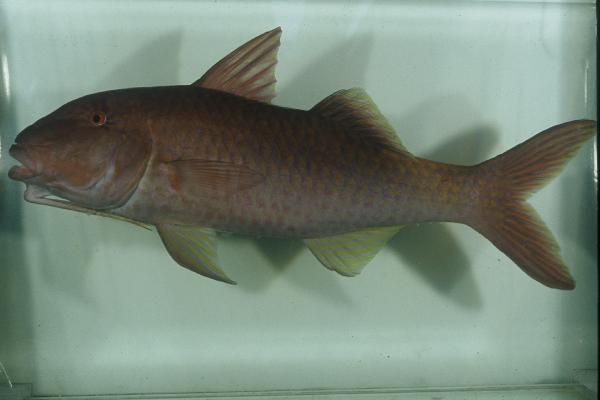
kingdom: Animalia
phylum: Chordata
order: Perciformes
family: Mullidae
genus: Parupeneus
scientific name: Parupeneus cyclostomus
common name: Goldsaddle goatfish
